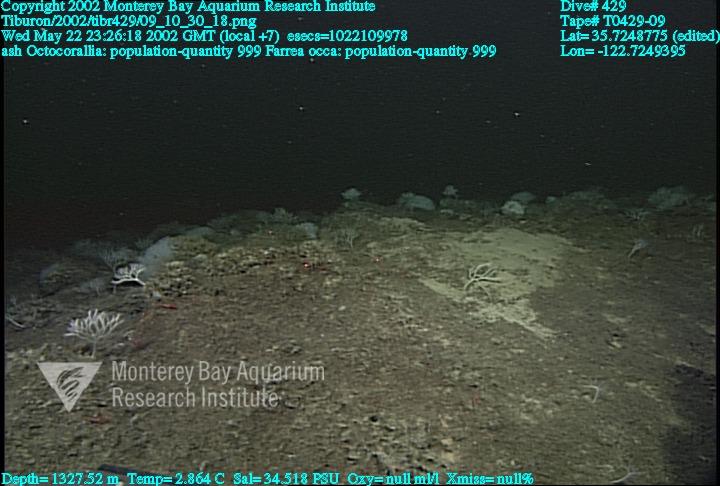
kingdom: Animalia
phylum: Porifera
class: Hexactinellida
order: Sceptrulophora
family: Farreidae
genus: Farrea
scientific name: Farrea occa
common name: Reversed glass sponge
